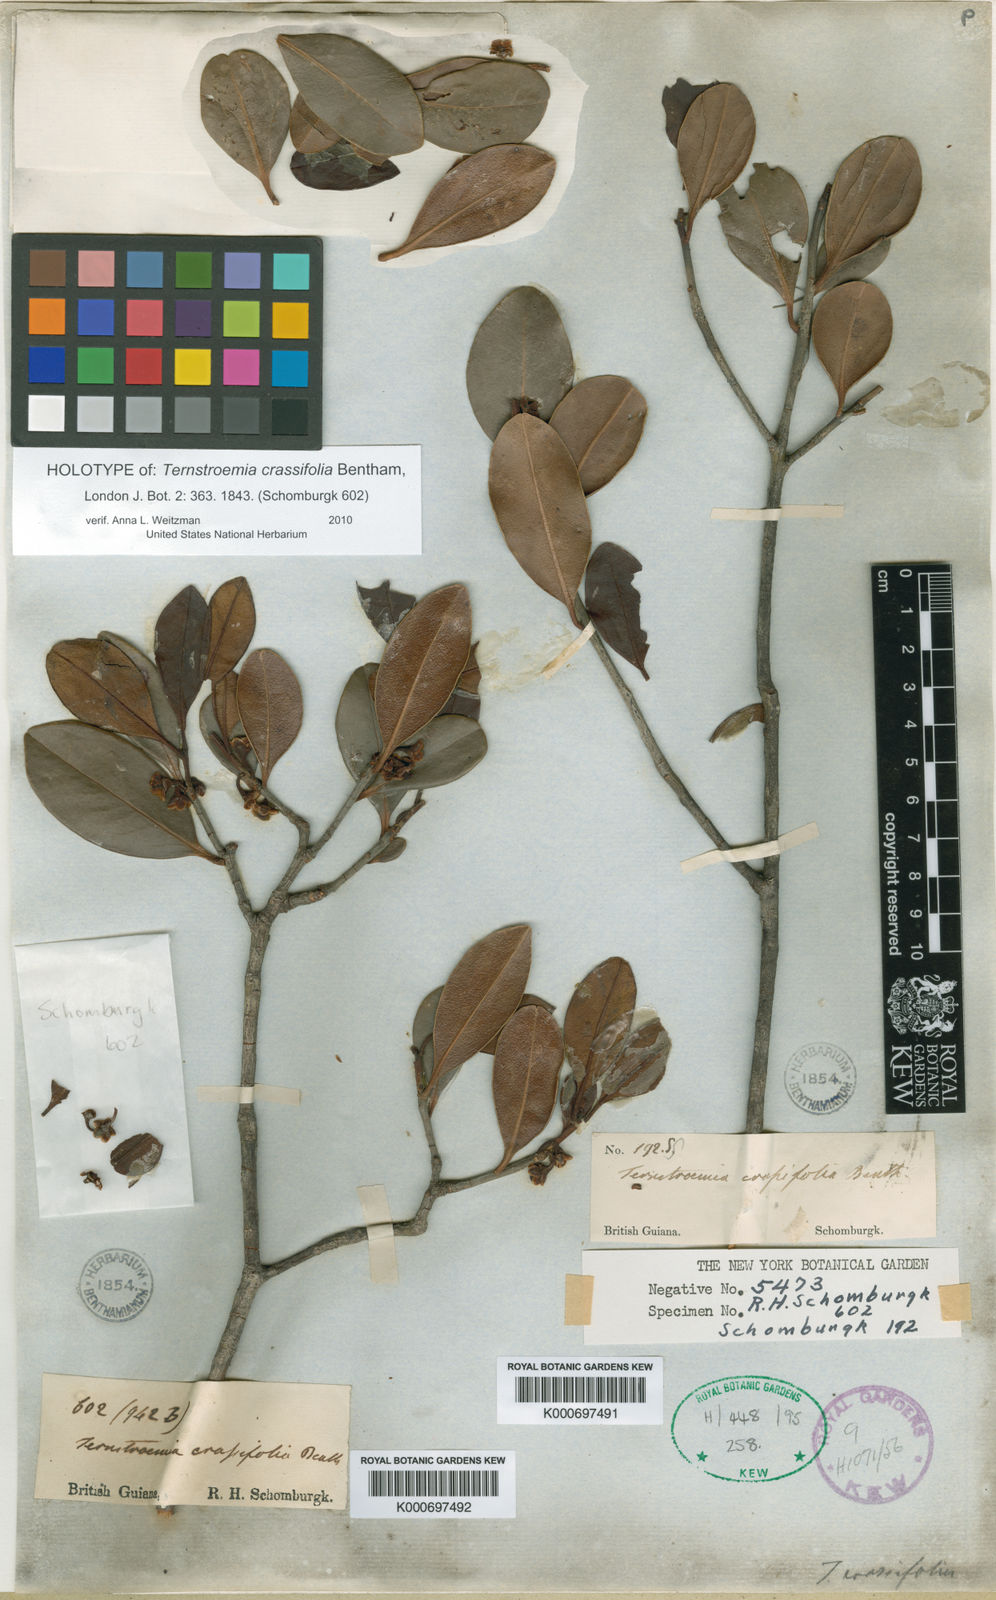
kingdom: Plantae
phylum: Tracheophyta
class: Magnoliopsida
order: Ericales
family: Pentaphylacaceae
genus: Ternstroemia
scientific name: Ternstroemia crassifolia
